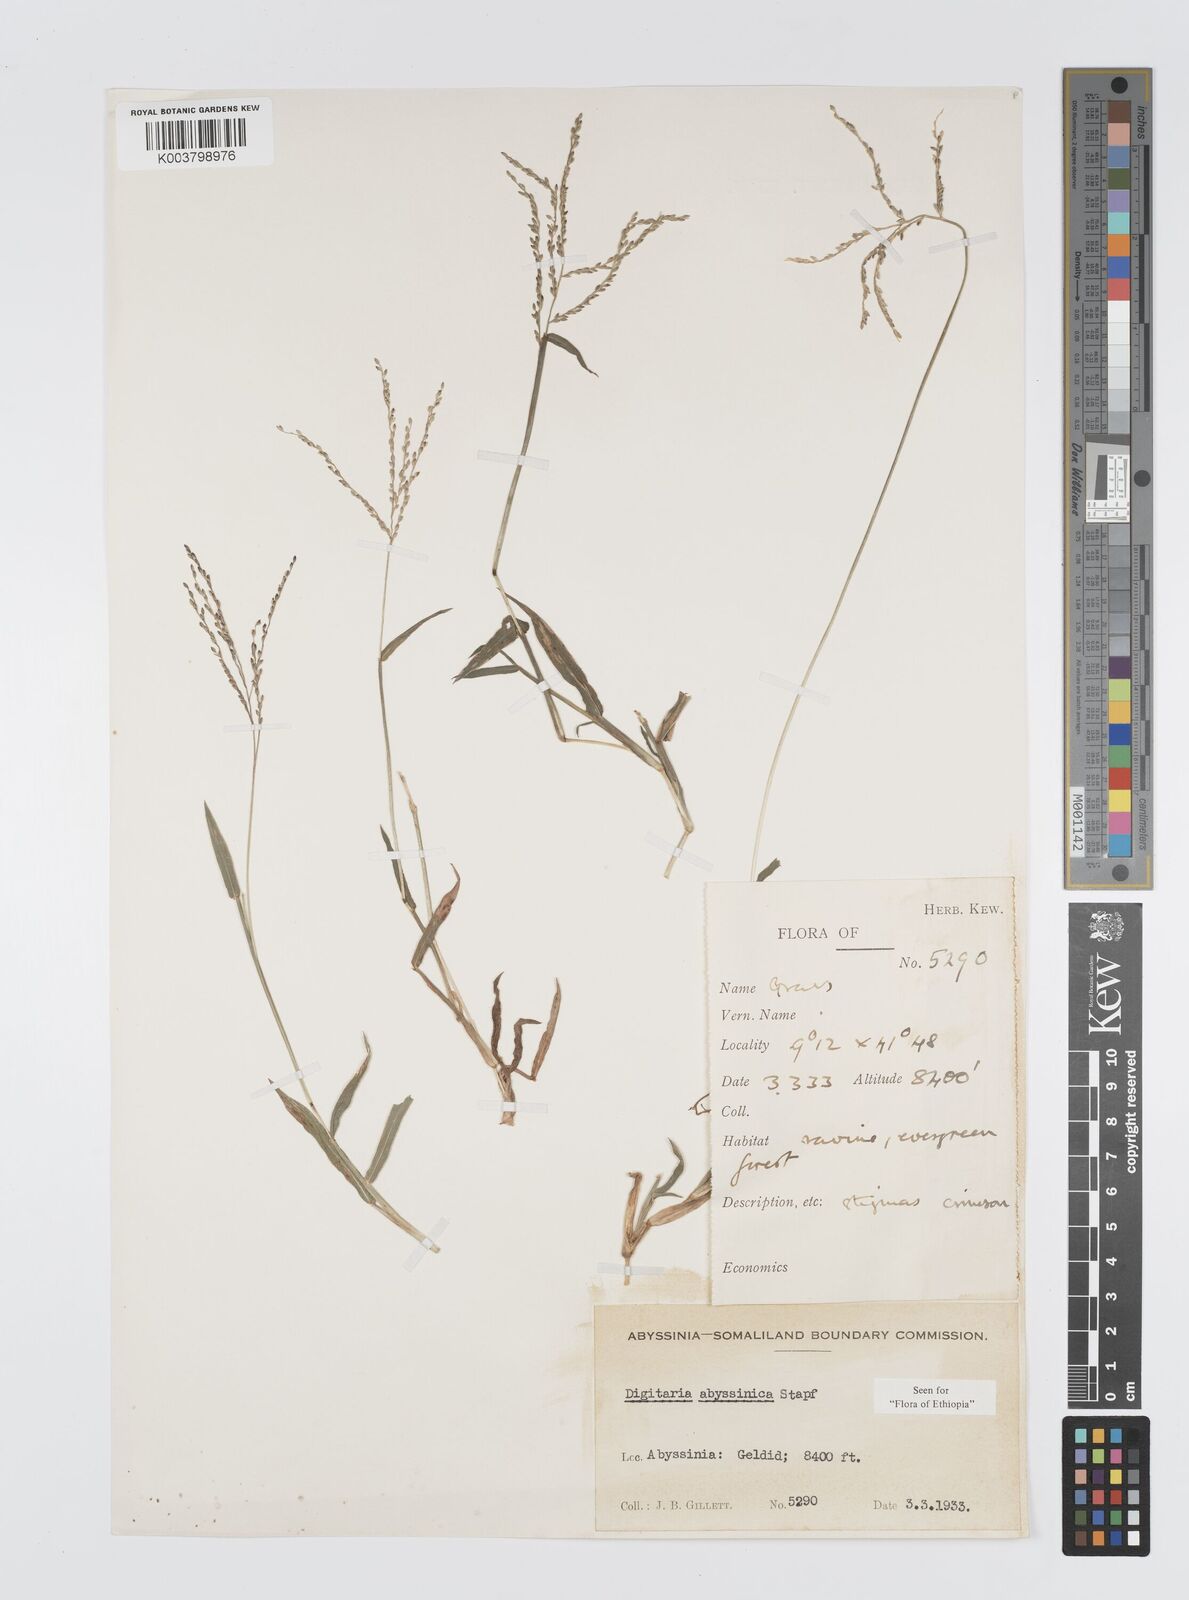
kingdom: Plantae
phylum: Tracheophyta
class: Liliopsida
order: Poales
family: Poaceae
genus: Digitaria
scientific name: Digitaria abyssinica
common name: African couchgrass
